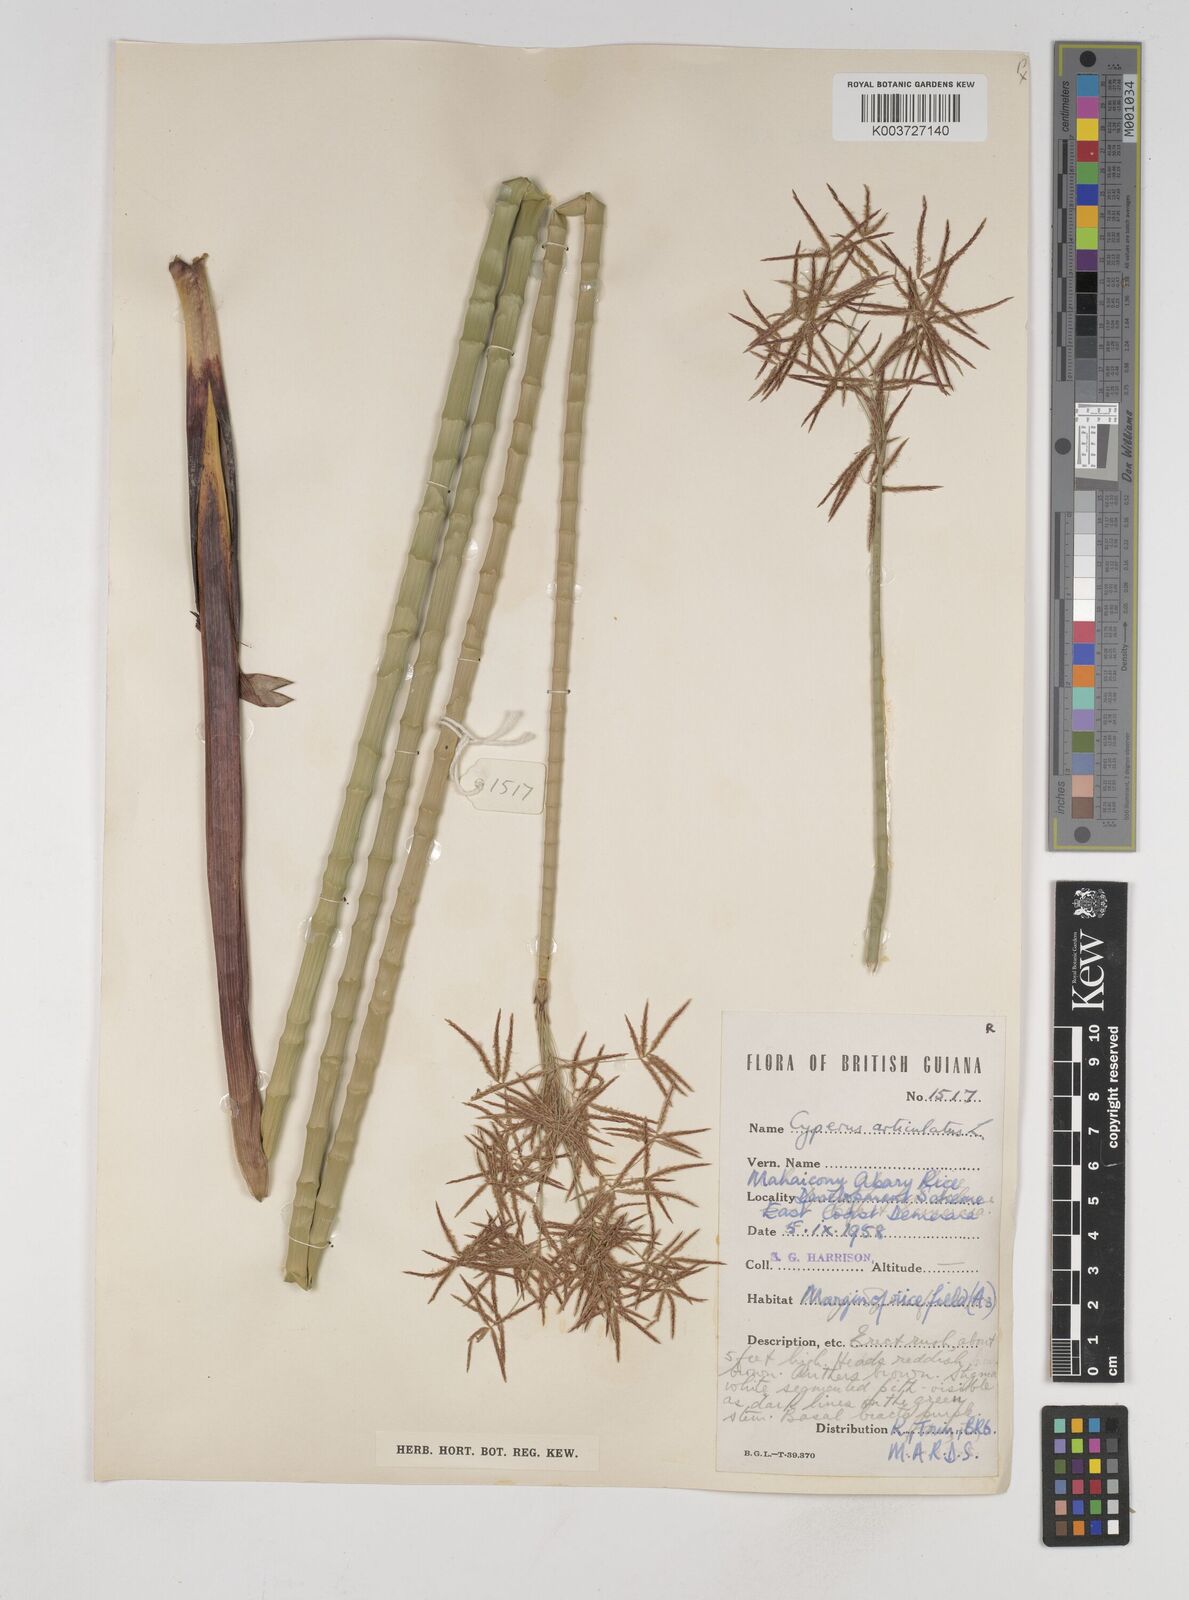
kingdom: Plantae
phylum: Tracheophyta
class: Liliopsida
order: Poales
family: Cyperaceae
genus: Cyperus
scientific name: Cyperus articulatus
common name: Jointed flatsedge
